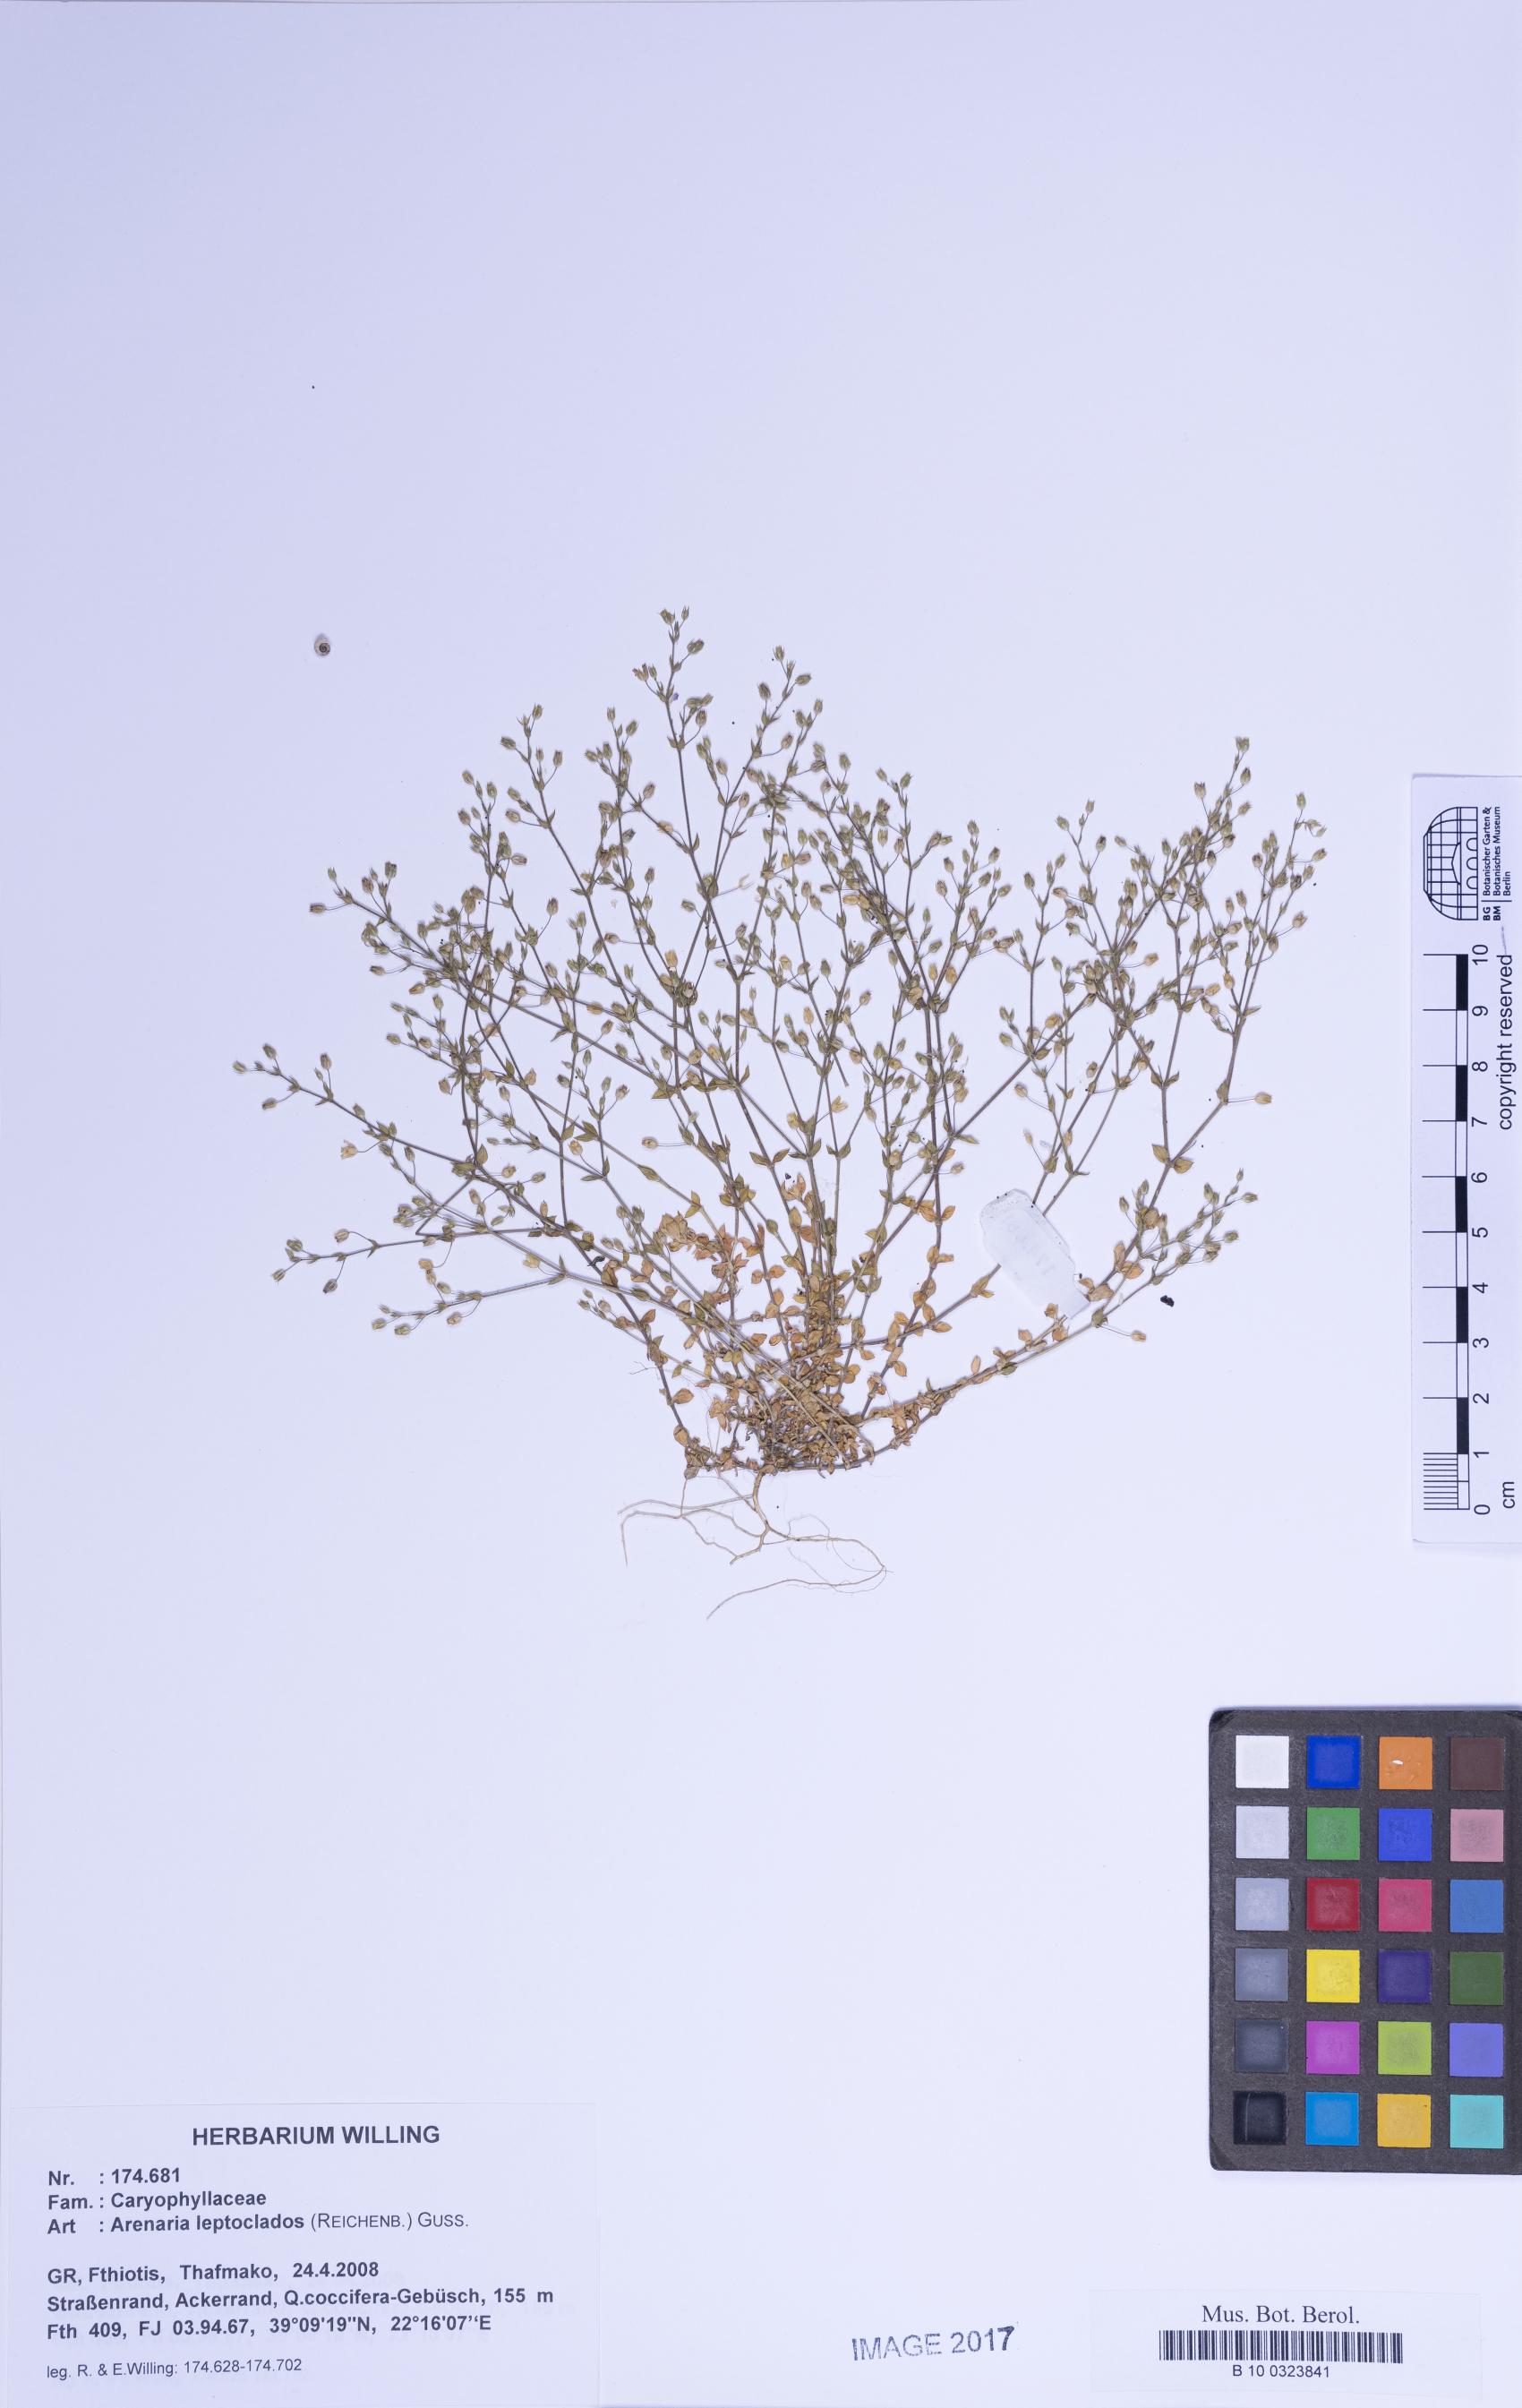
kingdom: Plantae
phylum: Tracheophyta
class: Magnoliopsida
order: Caryophyllales
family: Caryophyllaceae
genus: Arenaria
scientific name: Arenaria leptoclados
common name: Thyme-leaved sandwort
